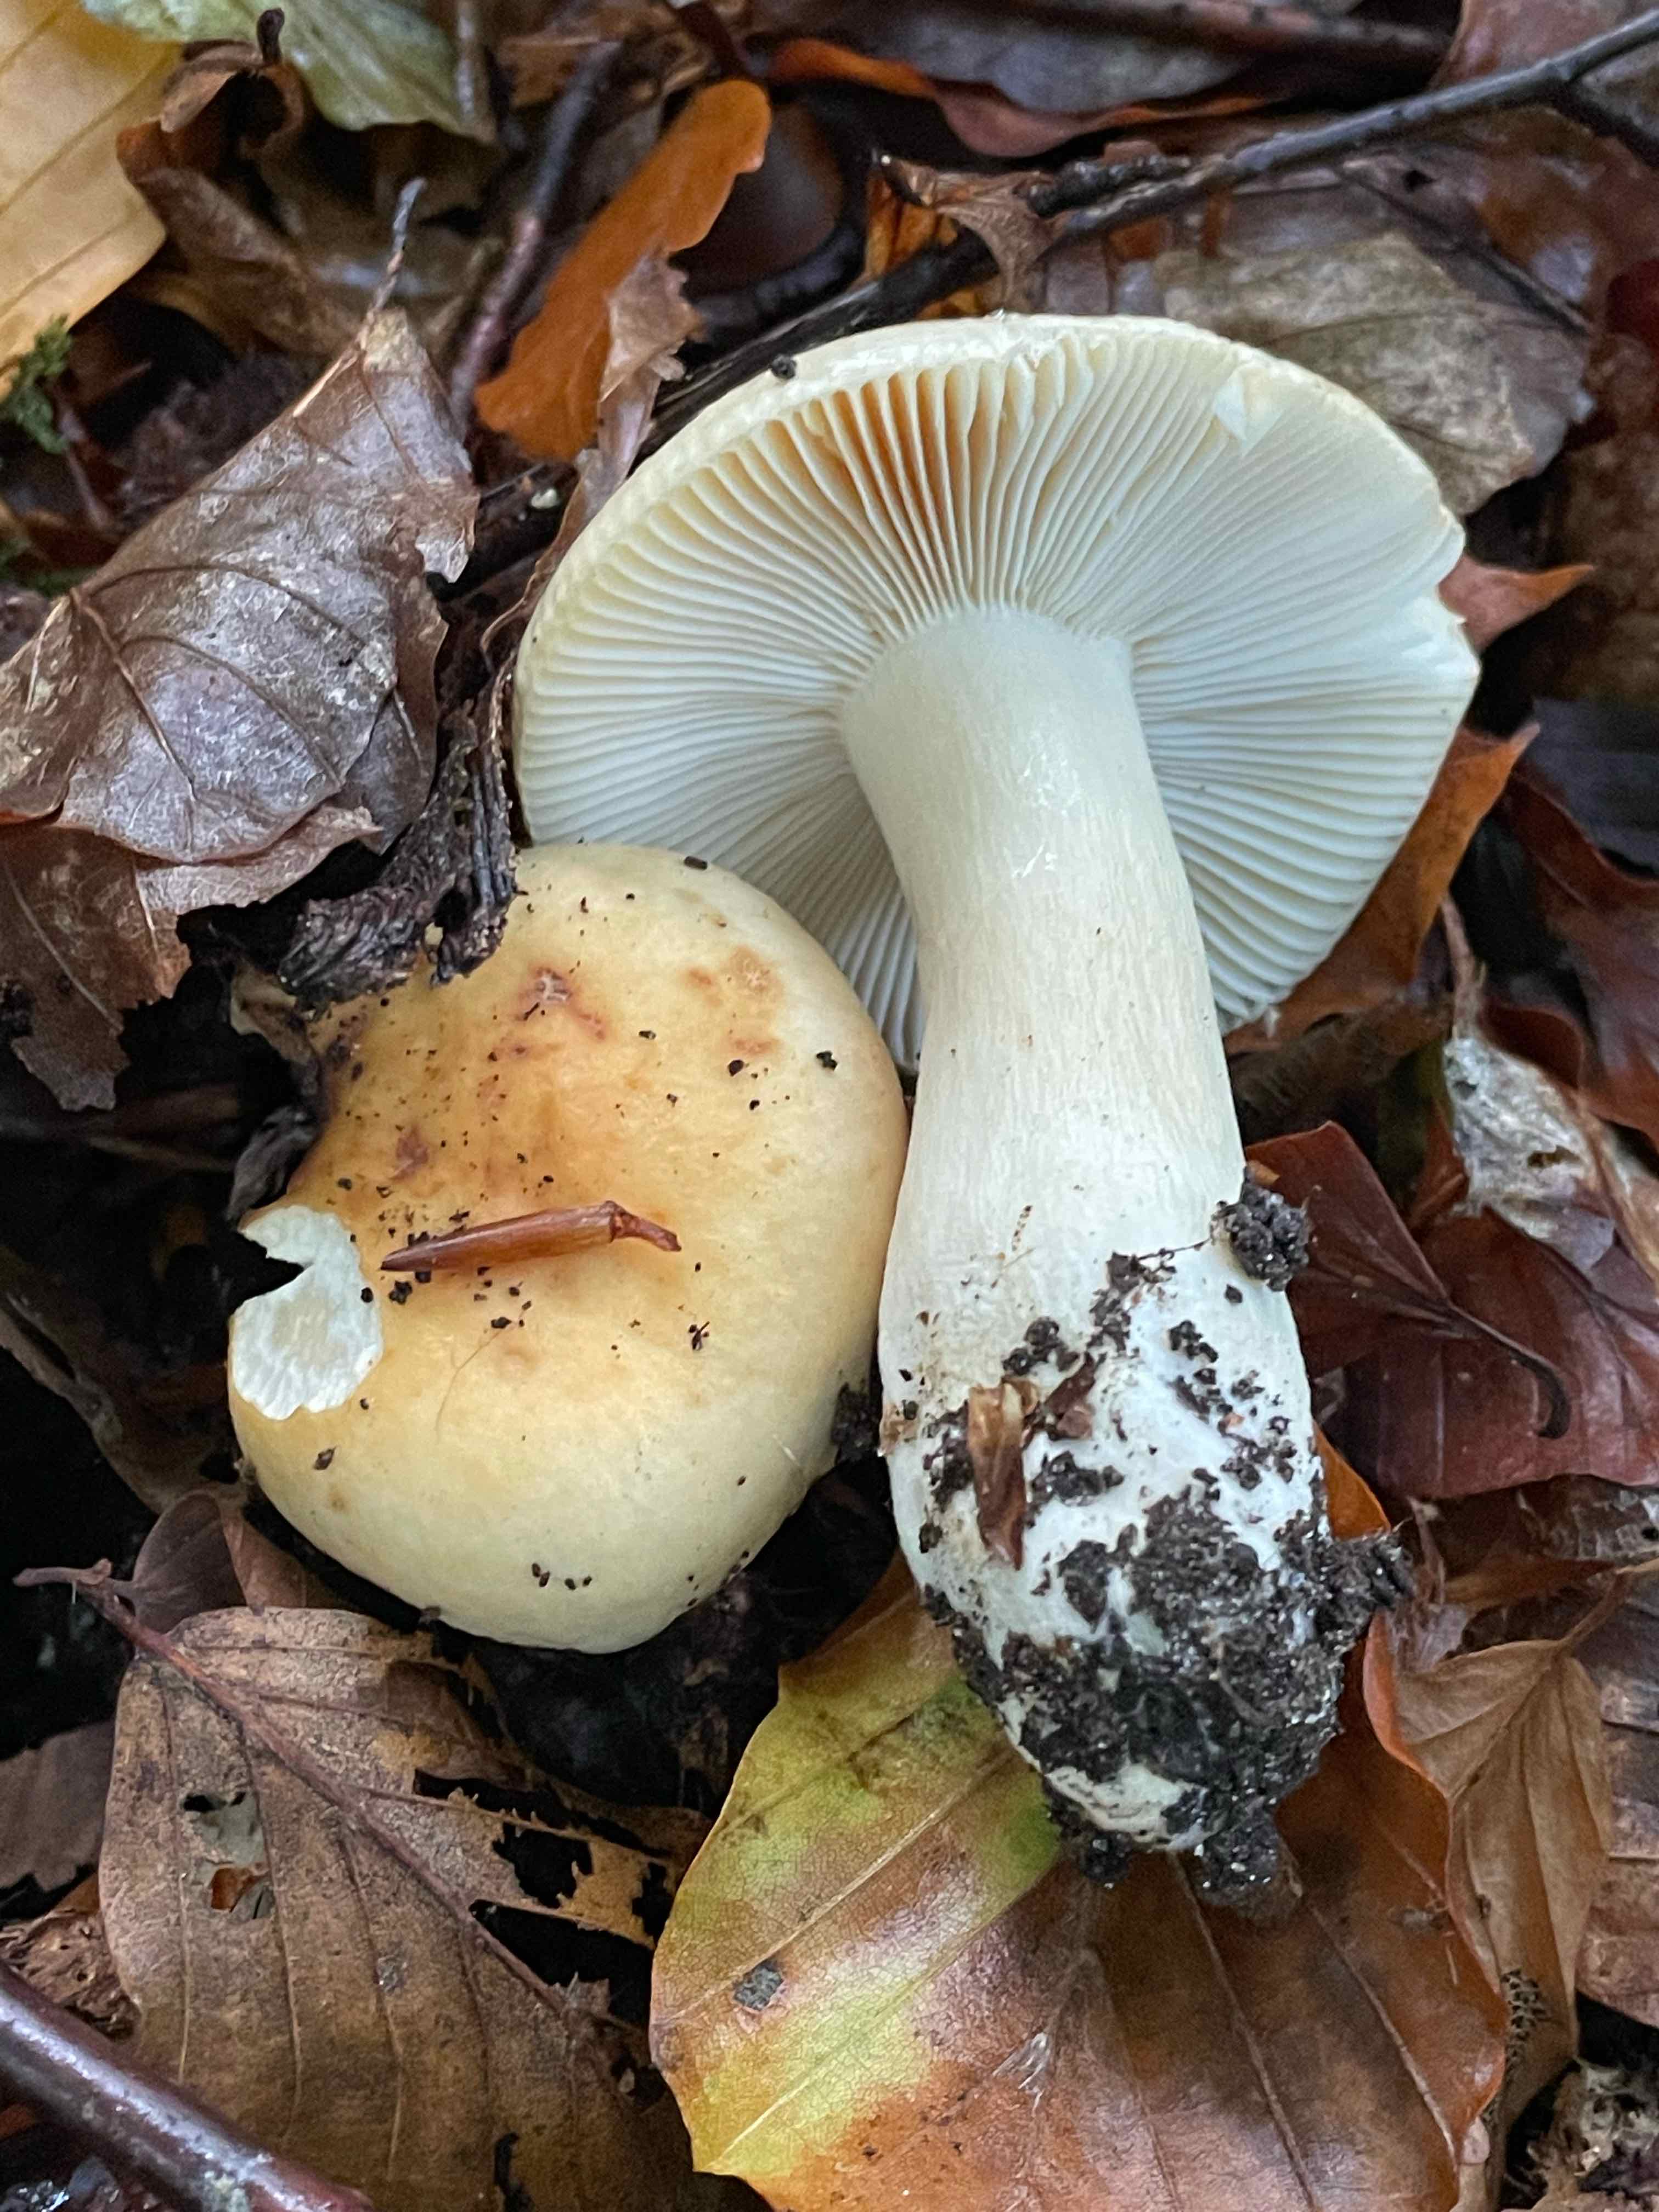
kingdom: Fungi
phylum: Basidiomycota
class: Agaricomycetes
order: Russulales
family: Russulaceae
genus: Russula
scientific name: Russula fellea
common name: galde-skørhat
